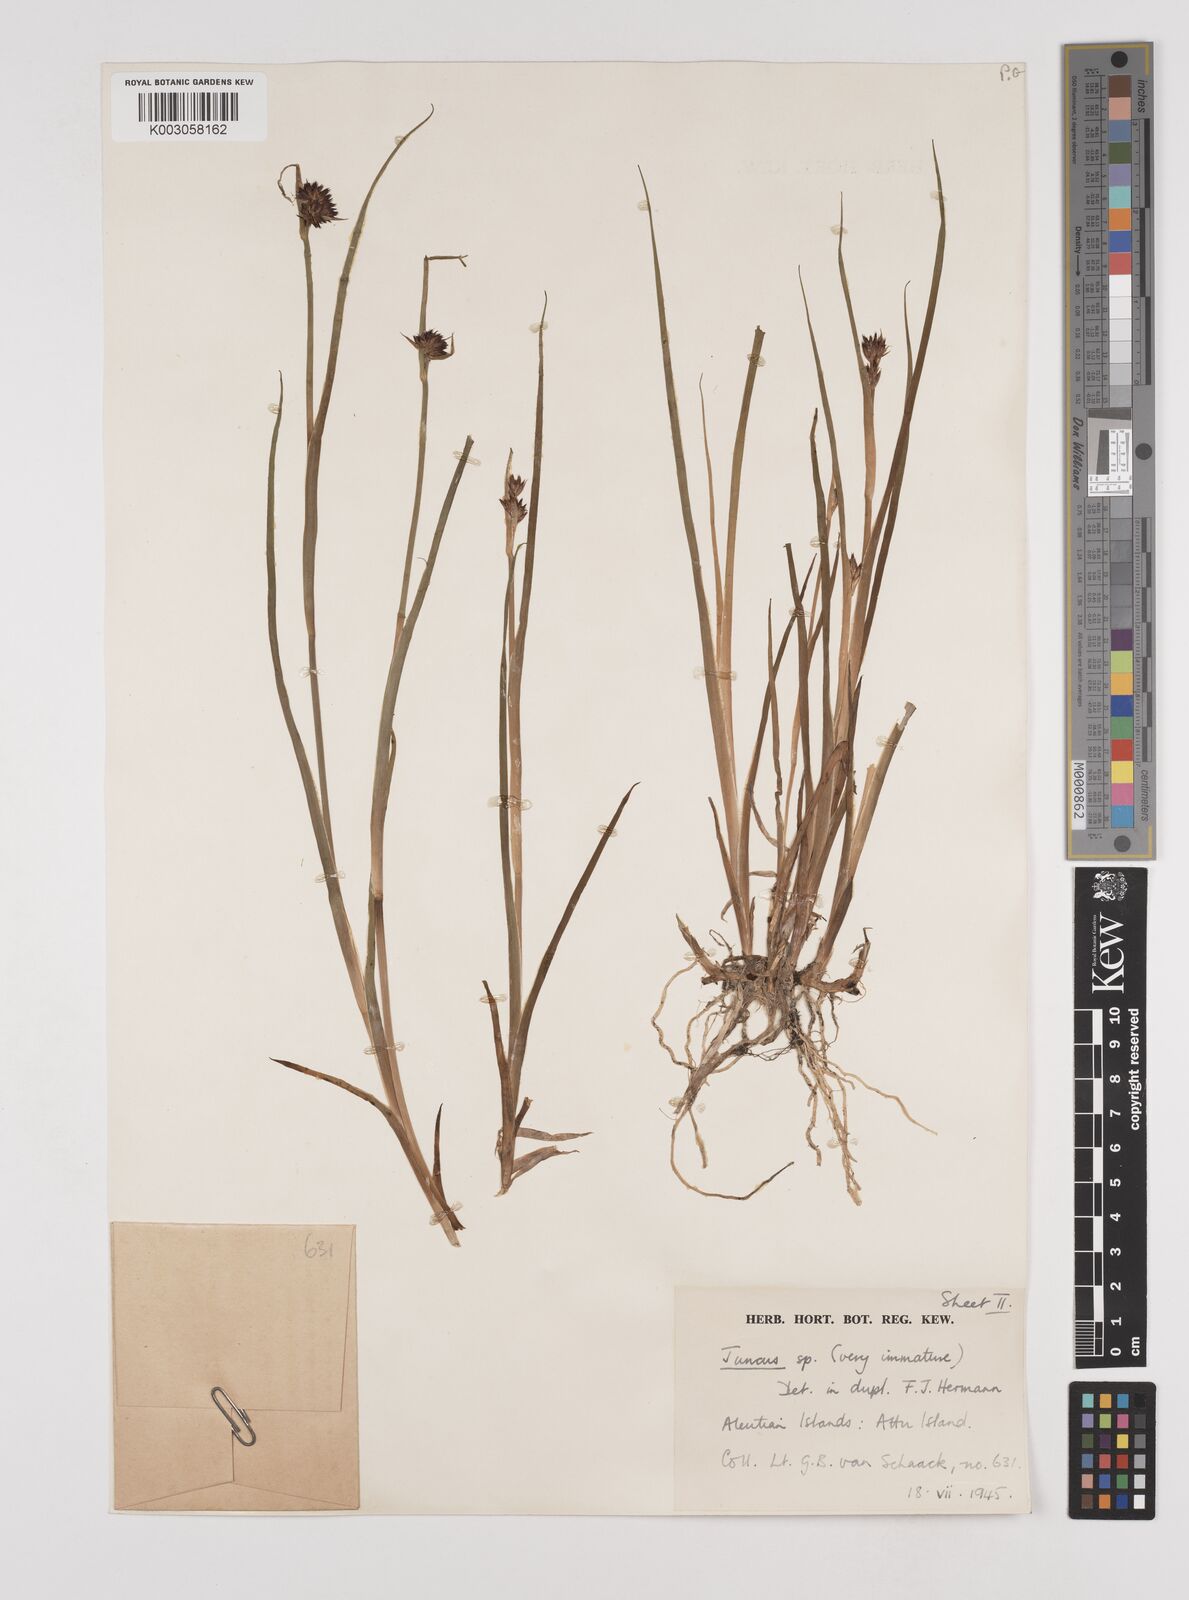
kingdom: Plantae
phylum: Tracheophyta
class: Liliopsida
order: Poales
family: Juncaceae
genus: Juncus
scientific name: Juncus
